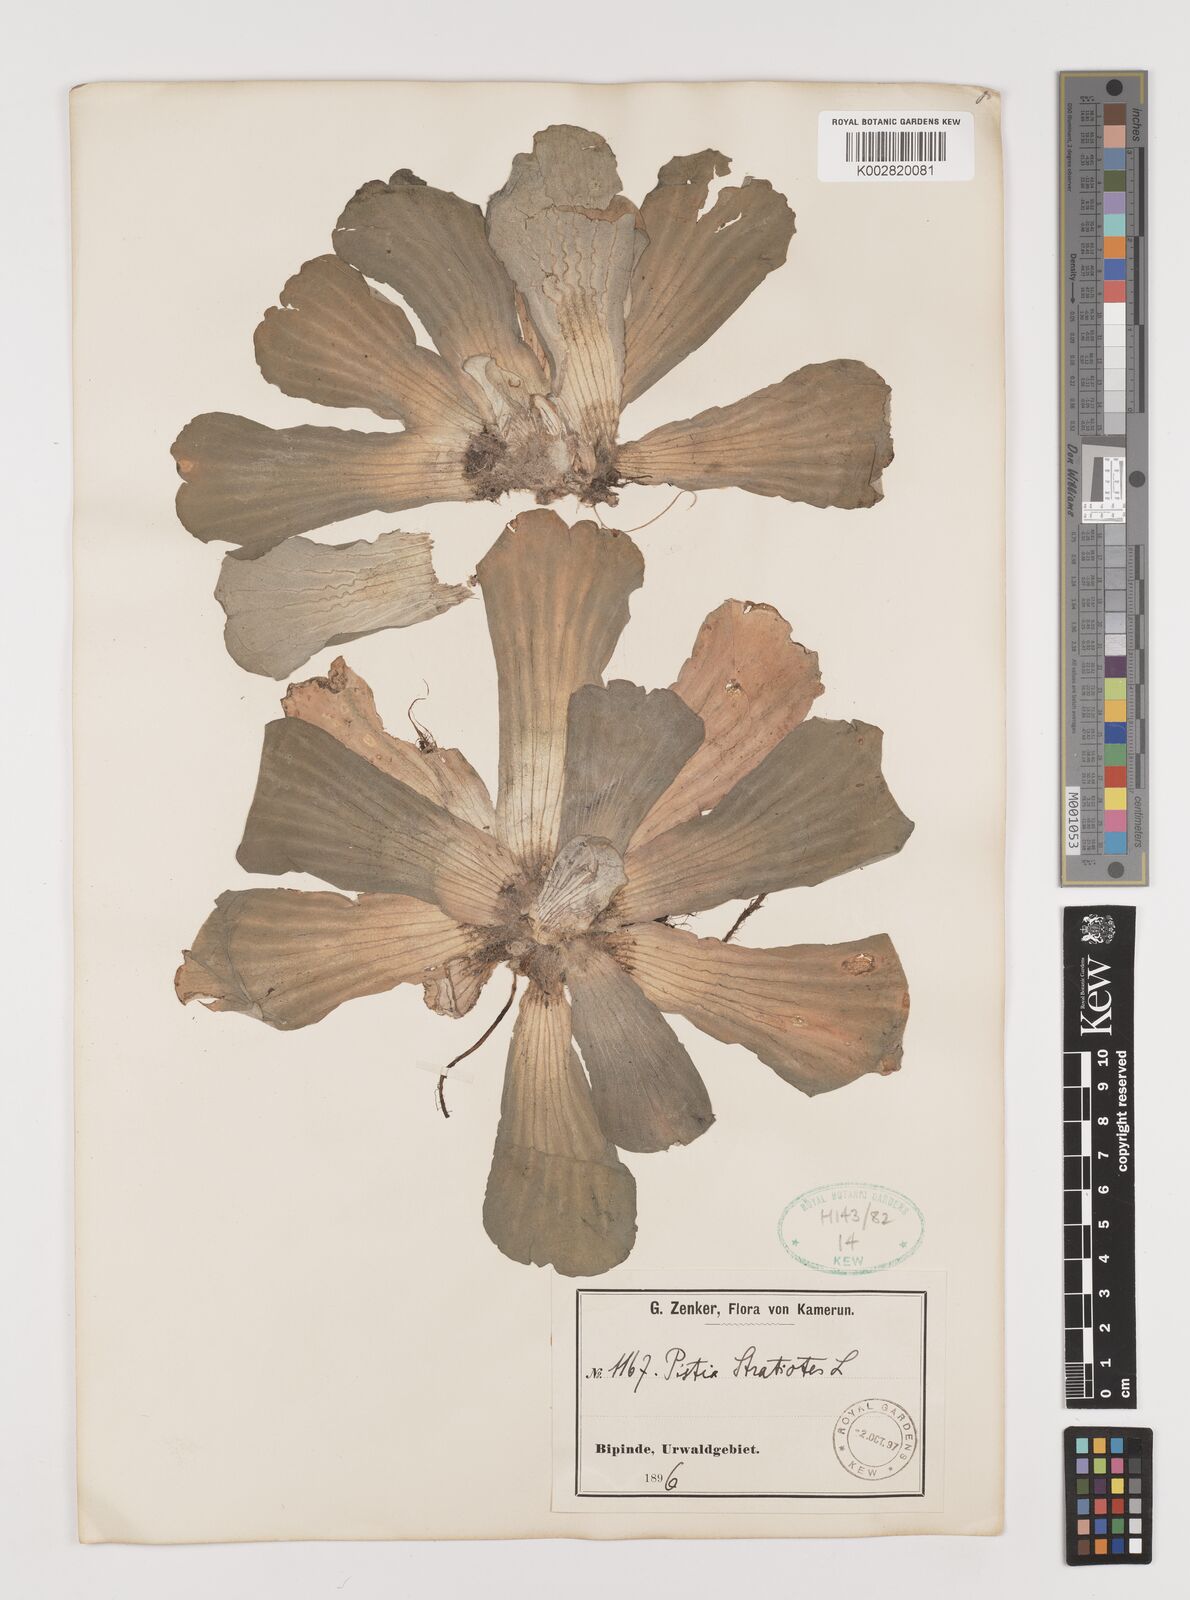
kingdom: Plantae
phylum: Tracheophyta
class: Liliopsida
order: Alismatales
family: Araceae
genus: Pistia
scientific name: Pistia stratiotes
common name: Water lettuce
